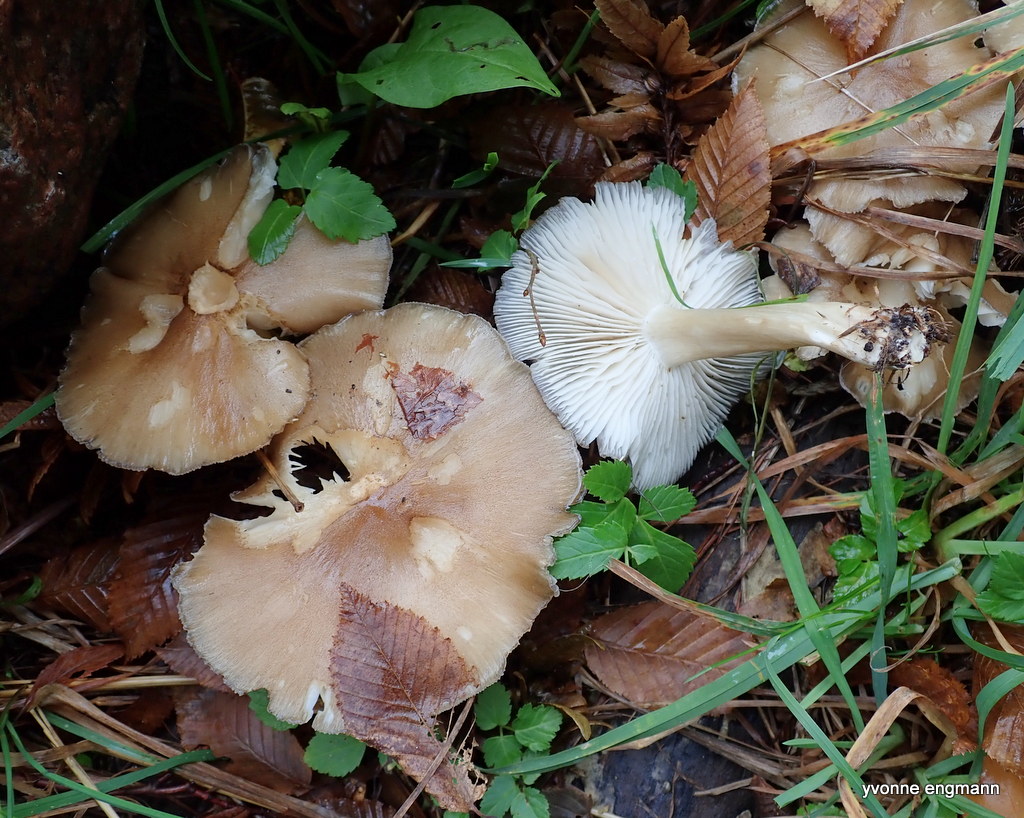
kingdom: Fungi
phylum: Basidiomycota
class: Agaricomycetes
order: Agaricales
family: Tricholomataceae
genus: Megacollybia
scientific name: Megacollybia platyphylla
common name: bredbladet væbnerhat
